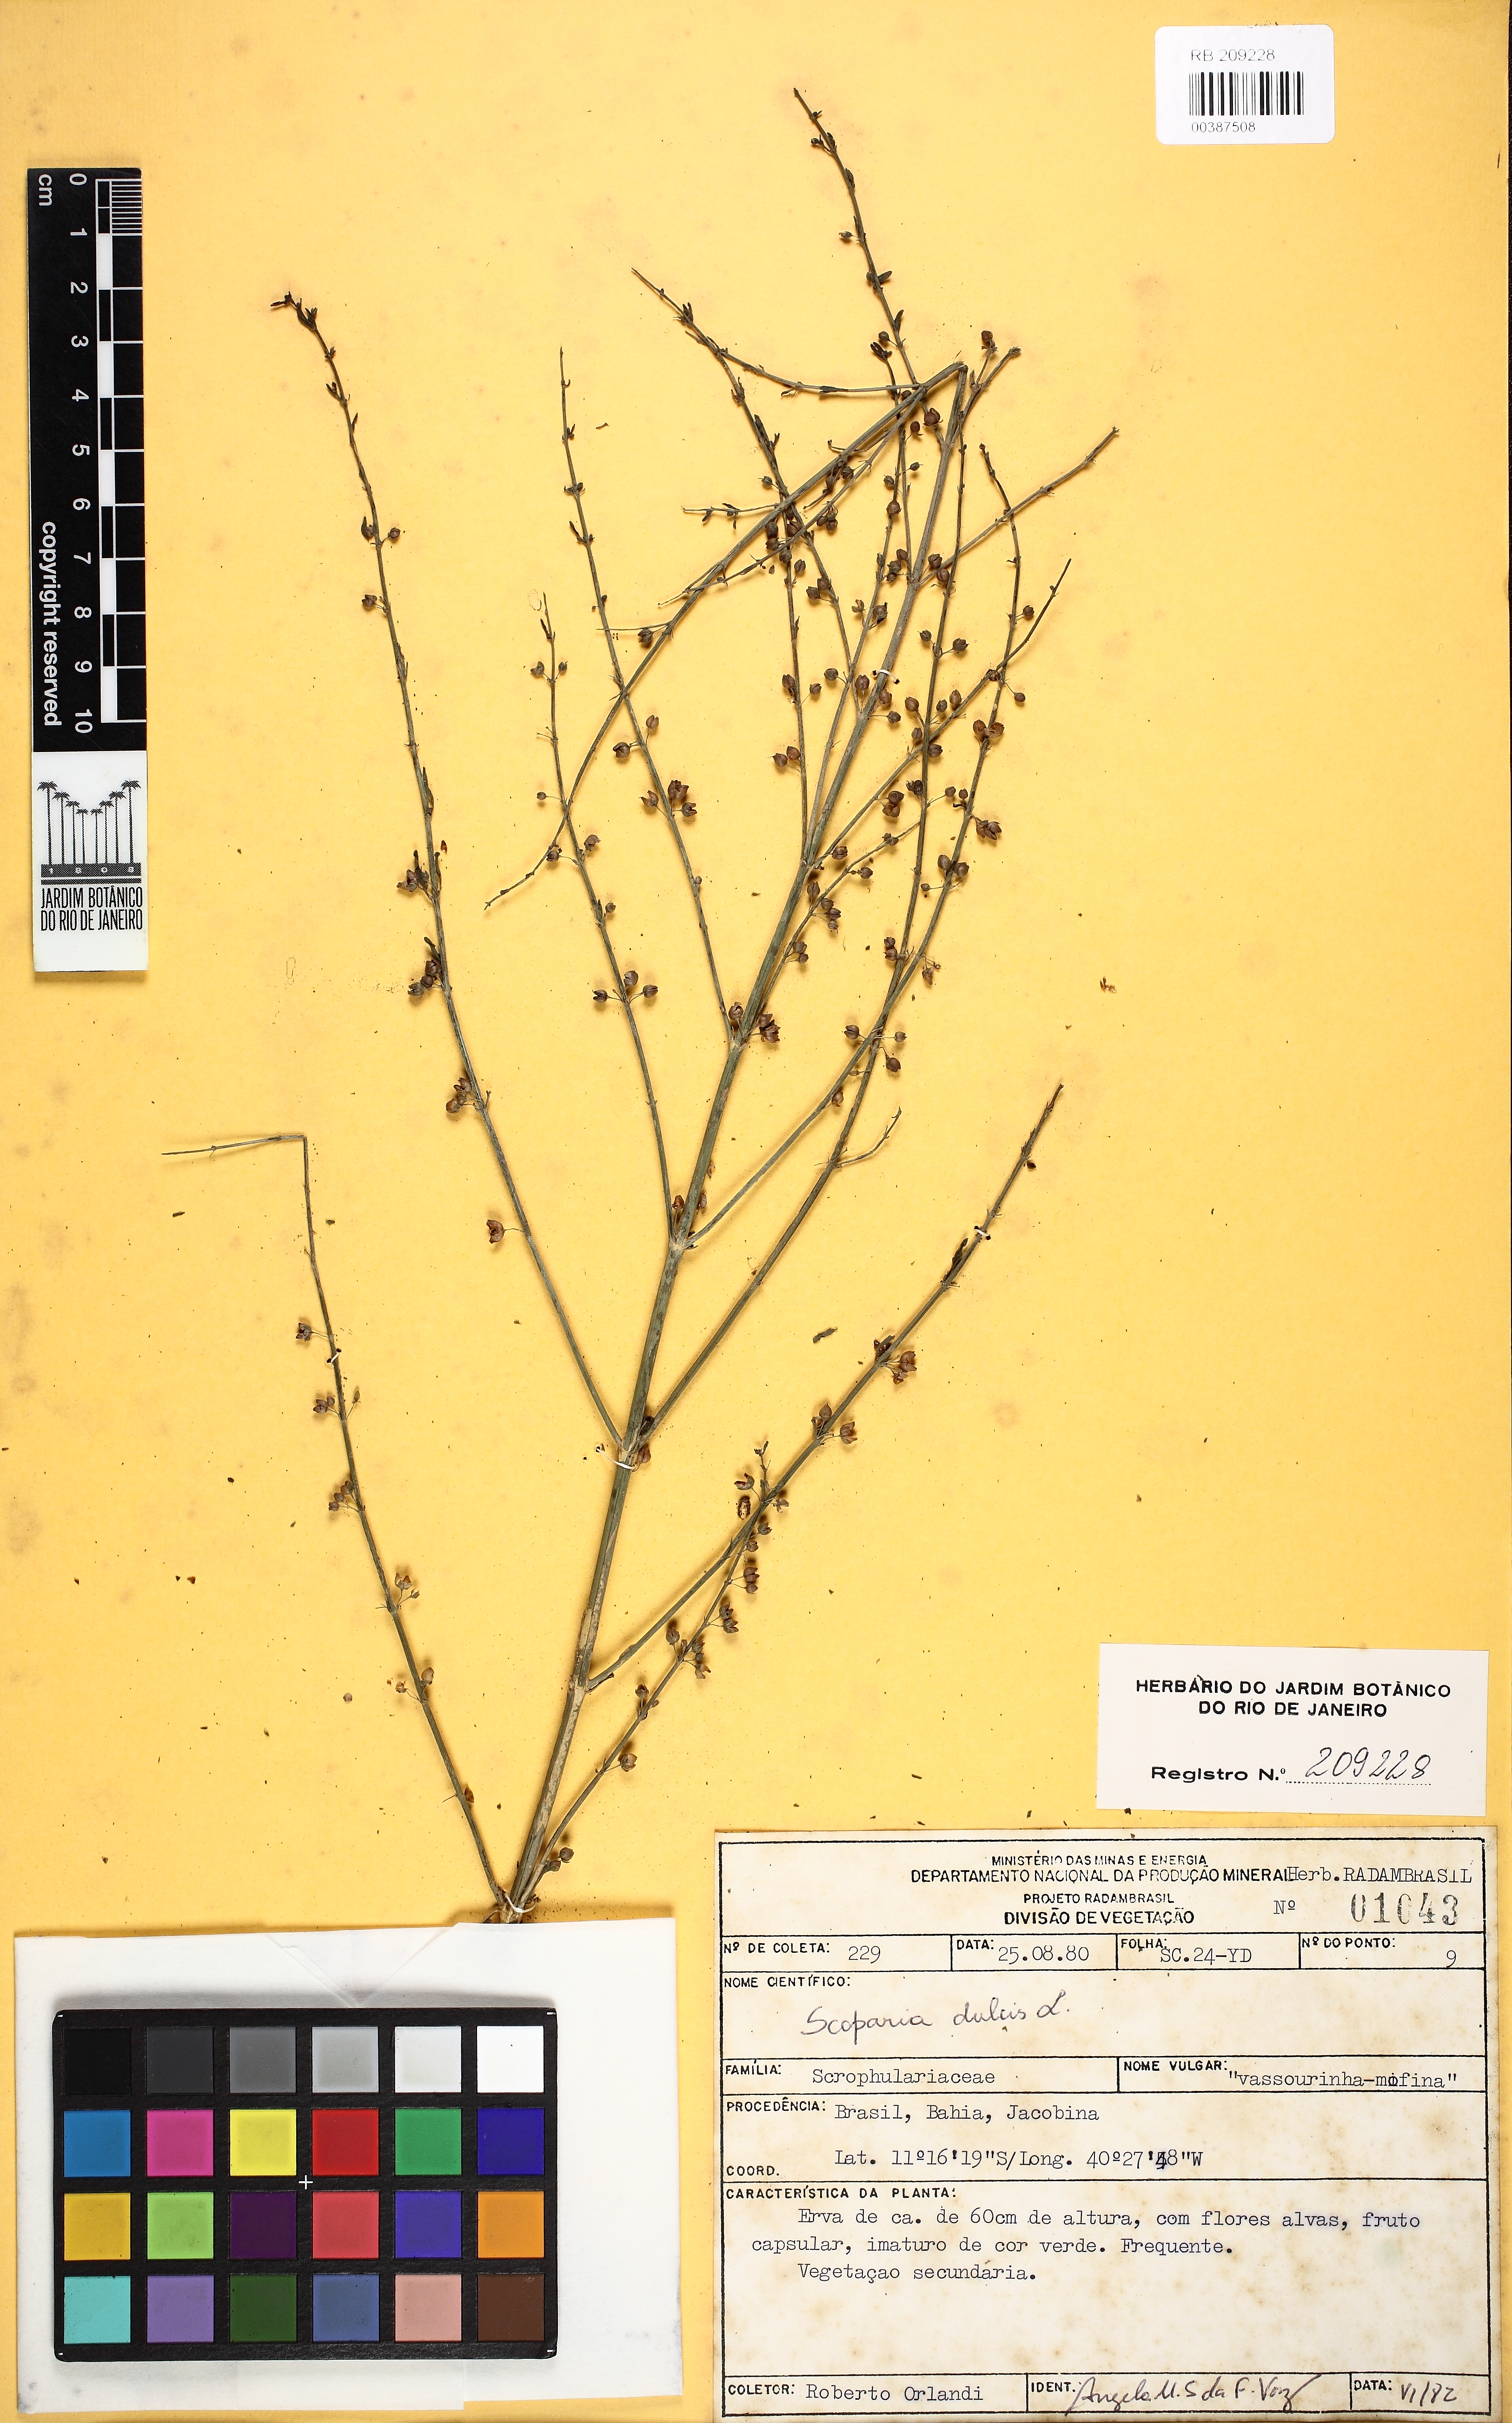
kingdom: Plantae
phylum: Tracheophyta
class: Magnoliopsida
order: Lamiales
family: Plantaginaceae
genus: Scoparia
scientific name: Scoparia dulcis
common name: Scoparia-weed
